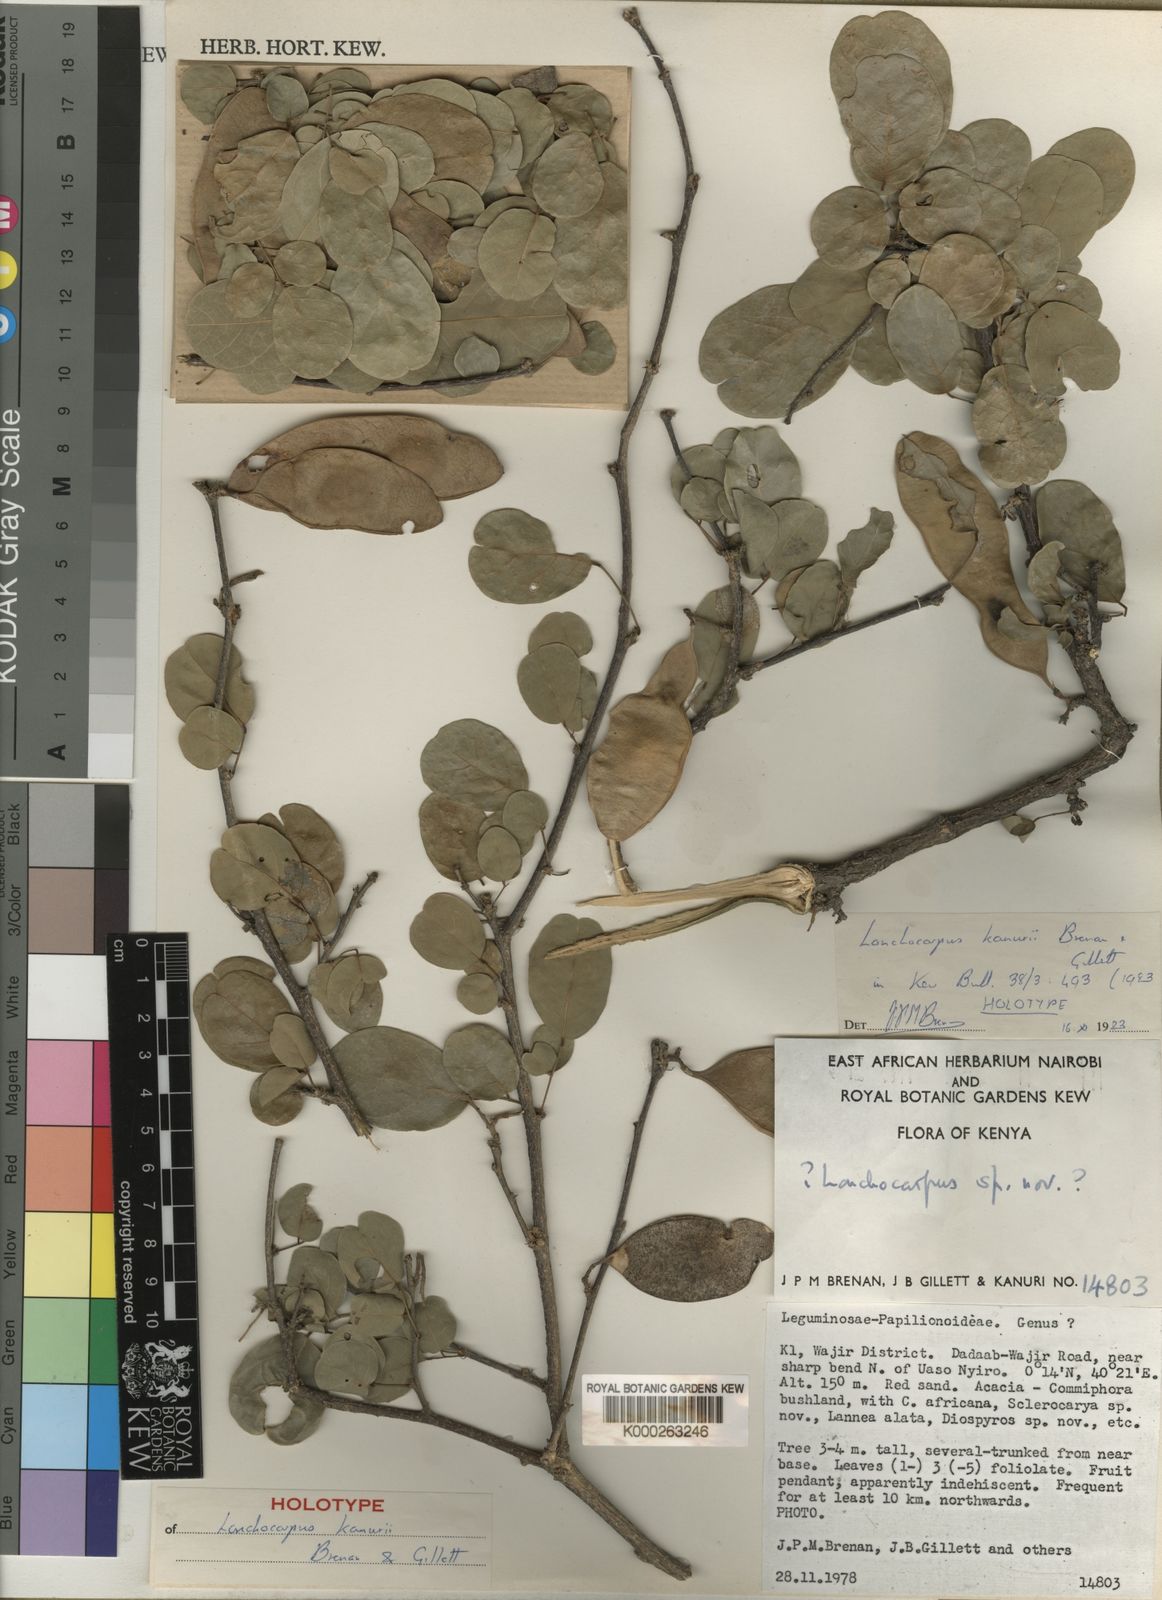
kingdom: Plantae
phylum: Tracheophyta
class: Magnoliopsida
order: Fabales
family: Fabaceae
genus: Philenoptera
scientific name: Philenoptera kanurii
